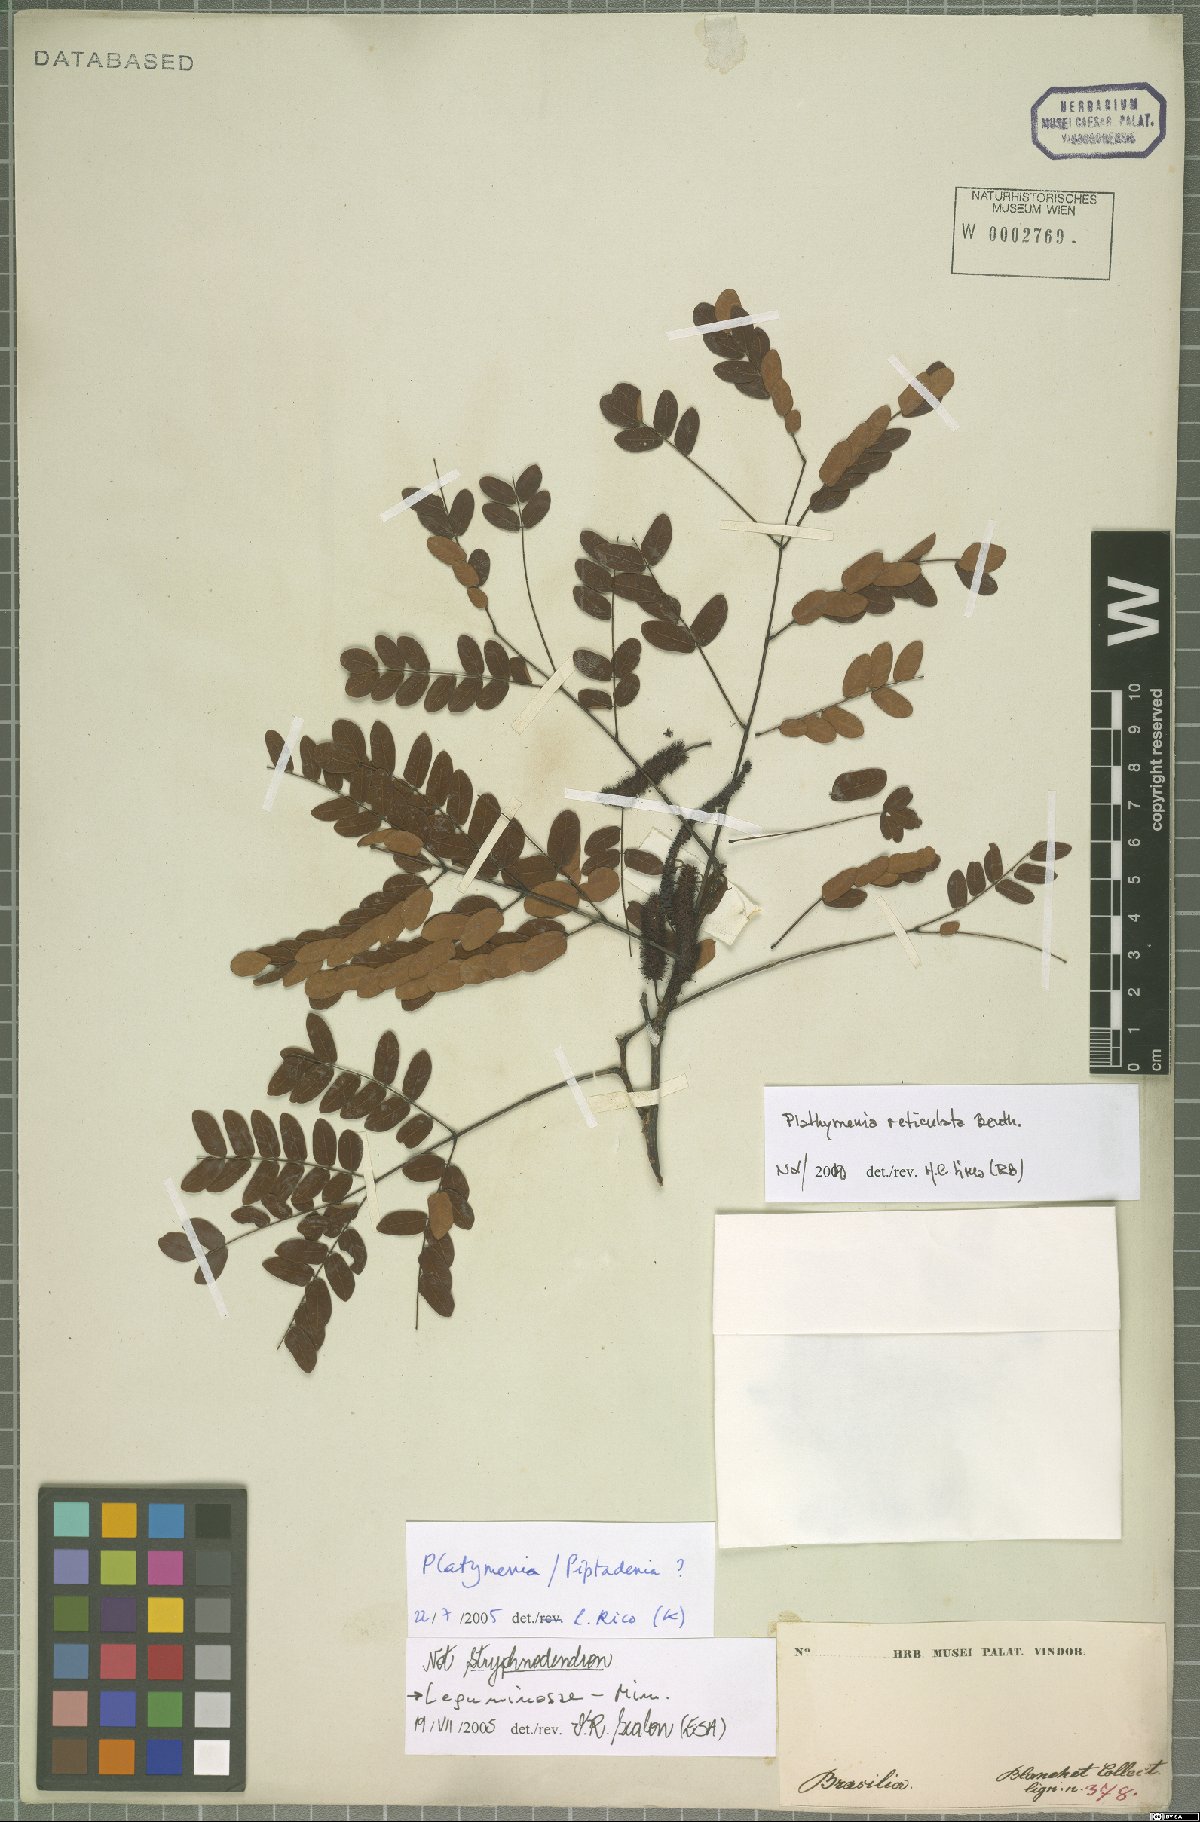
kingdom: Plantae
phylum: Tracheophyta
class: Magnoliopsida
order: Fabales
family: Fabaceae
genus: Plathymenia
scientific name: Plathymenia reticulata
